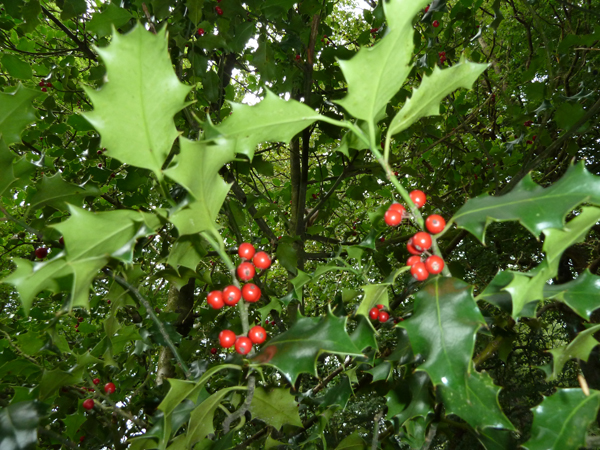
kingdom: Plantae
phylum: Tracheophyta
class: Magnoliopsida
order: Aquifoliales
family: Aquifoliaceae
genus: Ilex
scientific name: Ilex aquifolium
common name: English holly
